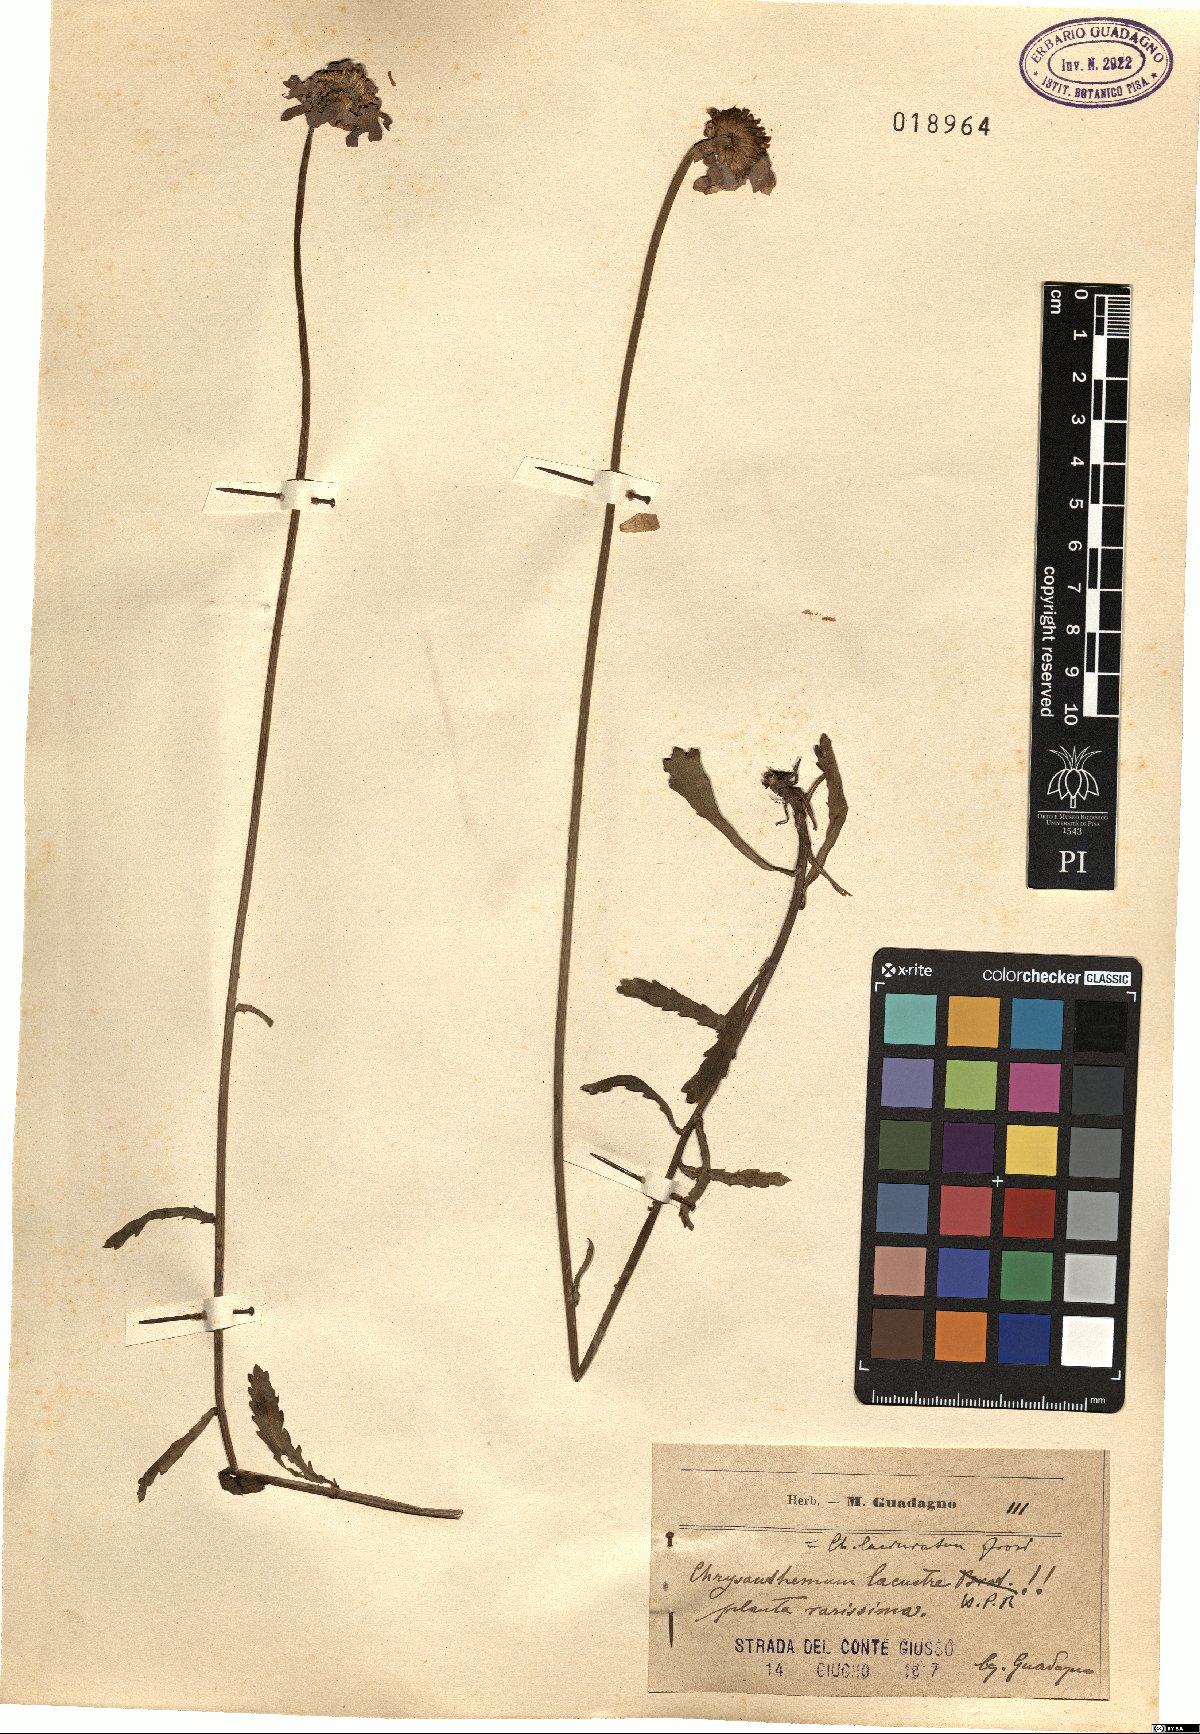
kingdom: Plantae
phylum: Tracheophyta
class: Magnoliopsida
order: Asterales
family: Asteraceae
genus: Leucanthemum
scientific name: Leucanthemum laciniatum
